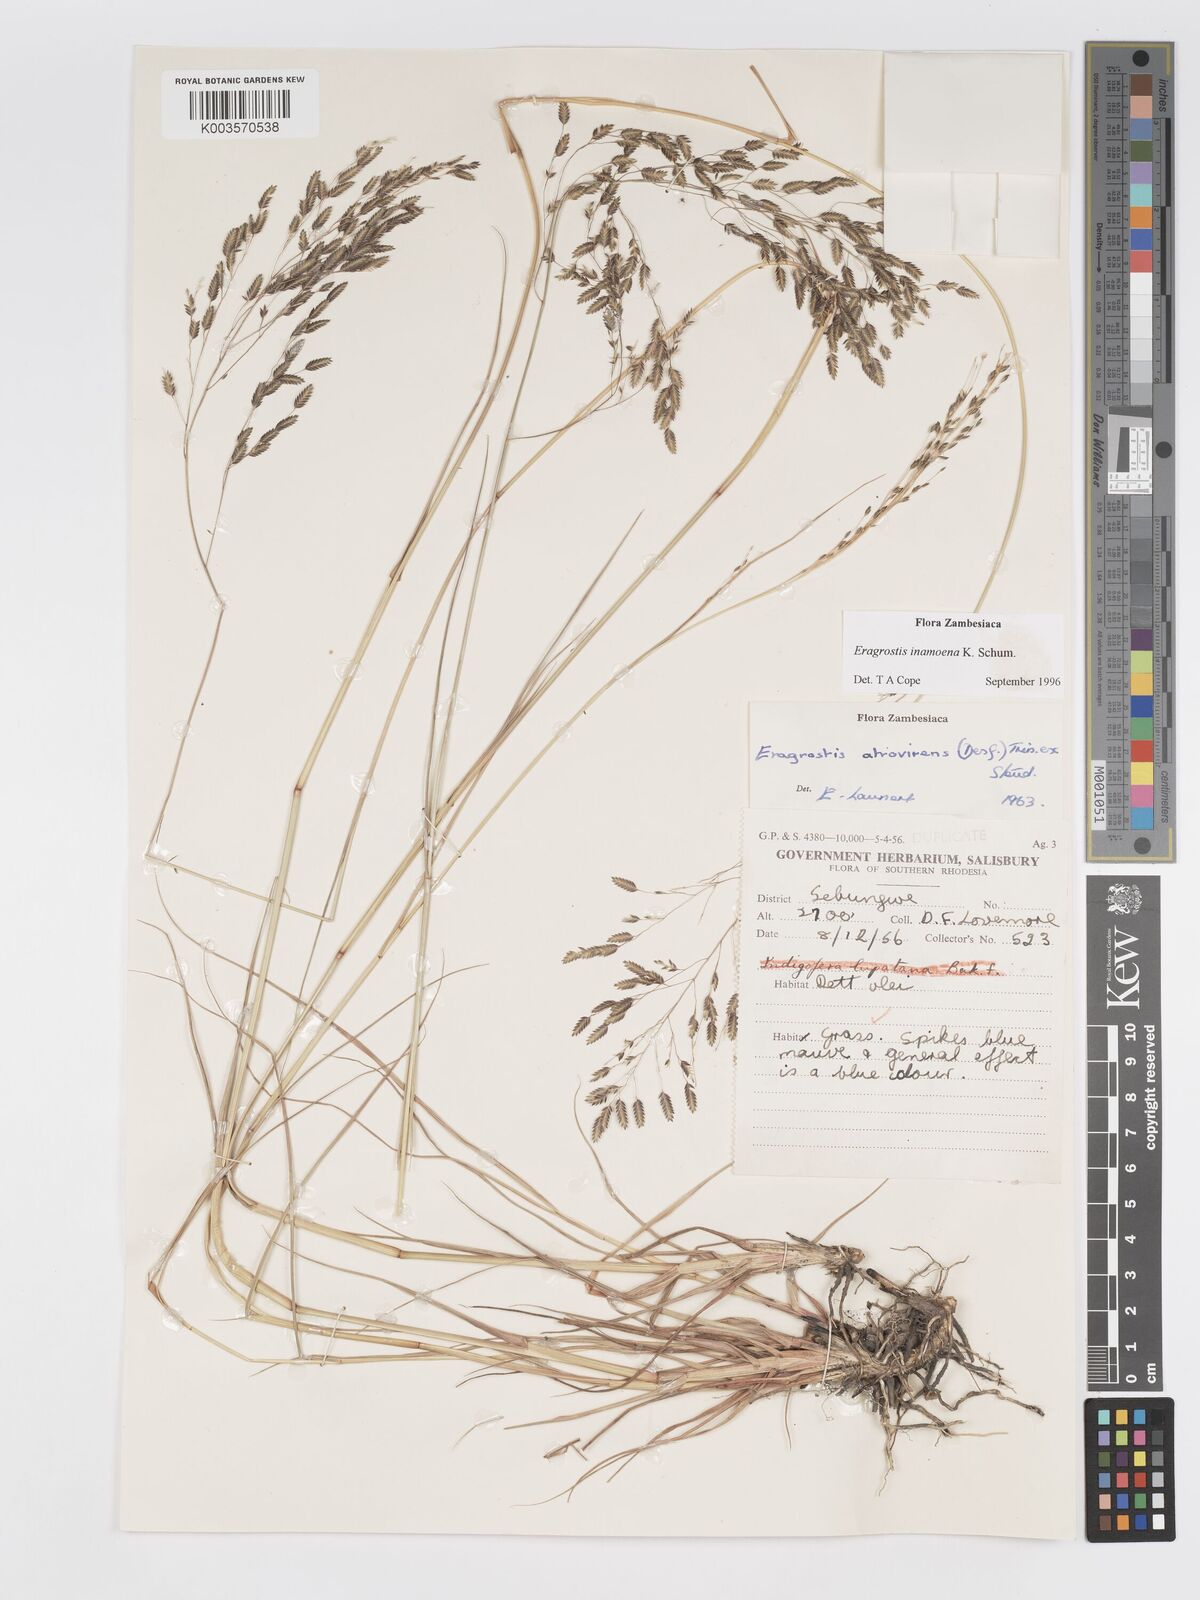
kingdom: Plantae
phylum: Tracheophyta
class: Liliopsida
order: Poales
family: Poaceae
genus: Eragrostis
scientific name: Eragrostis inamoena
